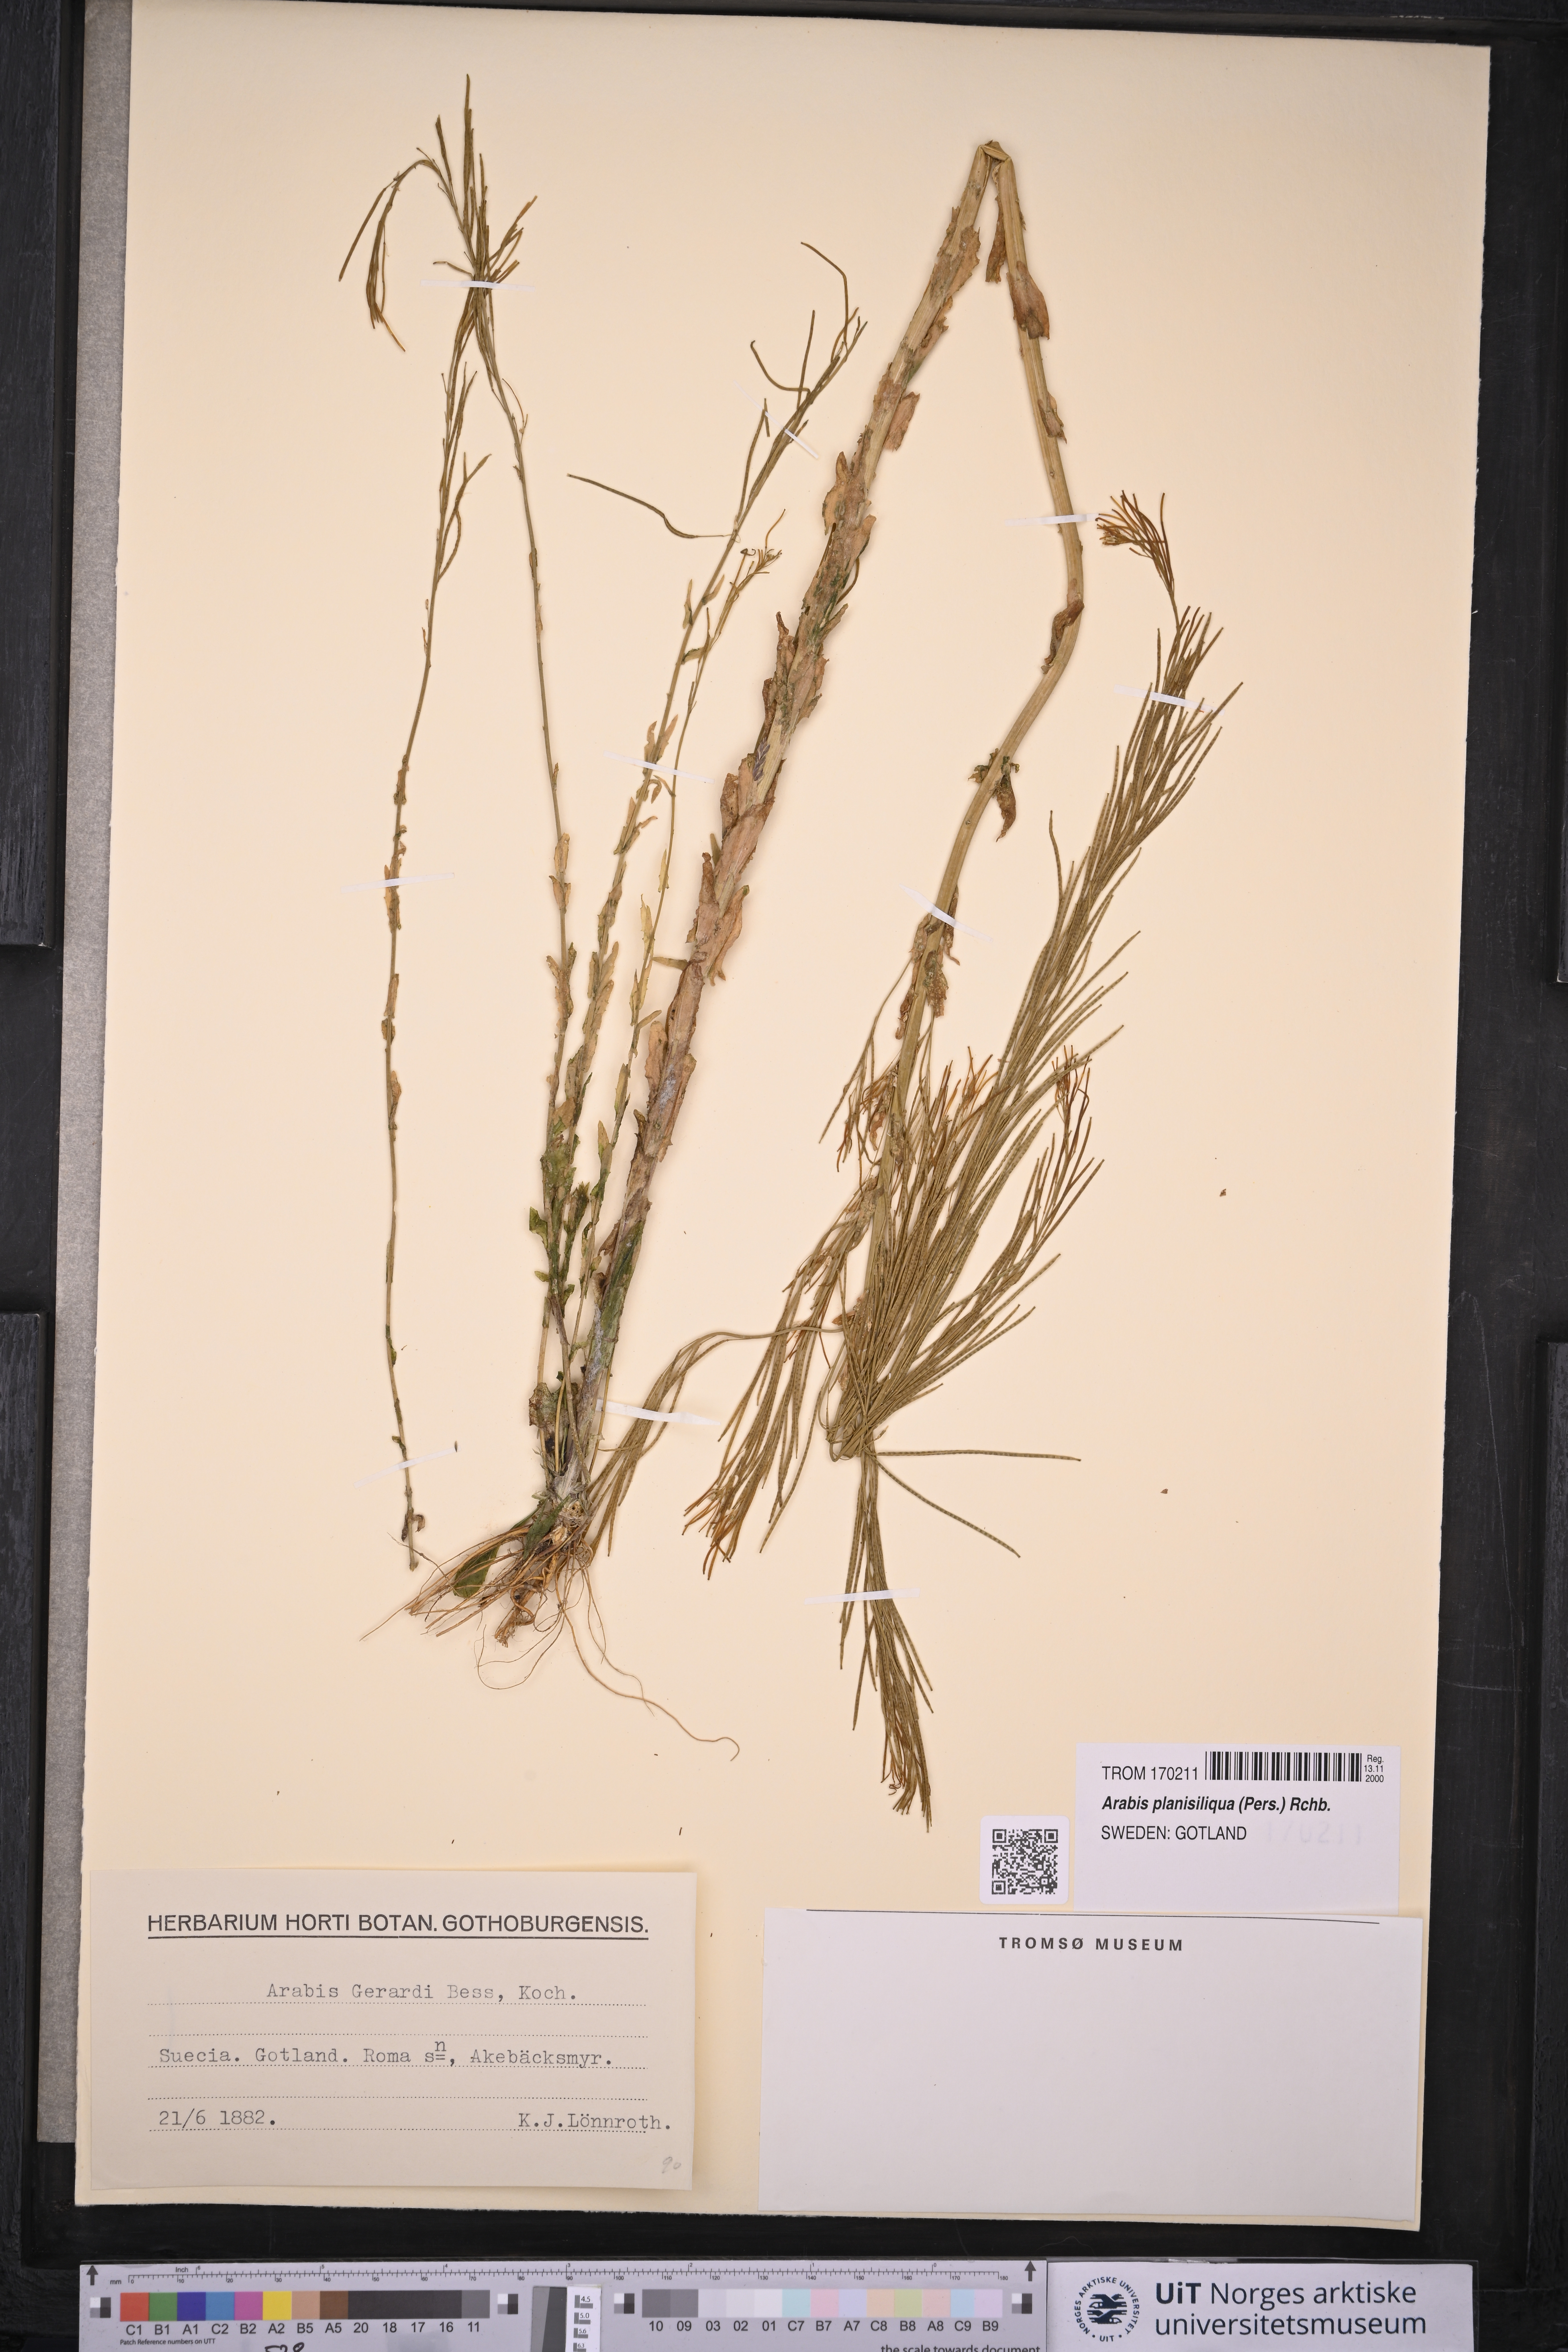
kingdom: Plantae
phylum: Tracheophyta
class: Magnoliopsida
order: Brassicales
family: Brassicaceae
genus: Arabis
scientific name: Arabis planisiliqua
